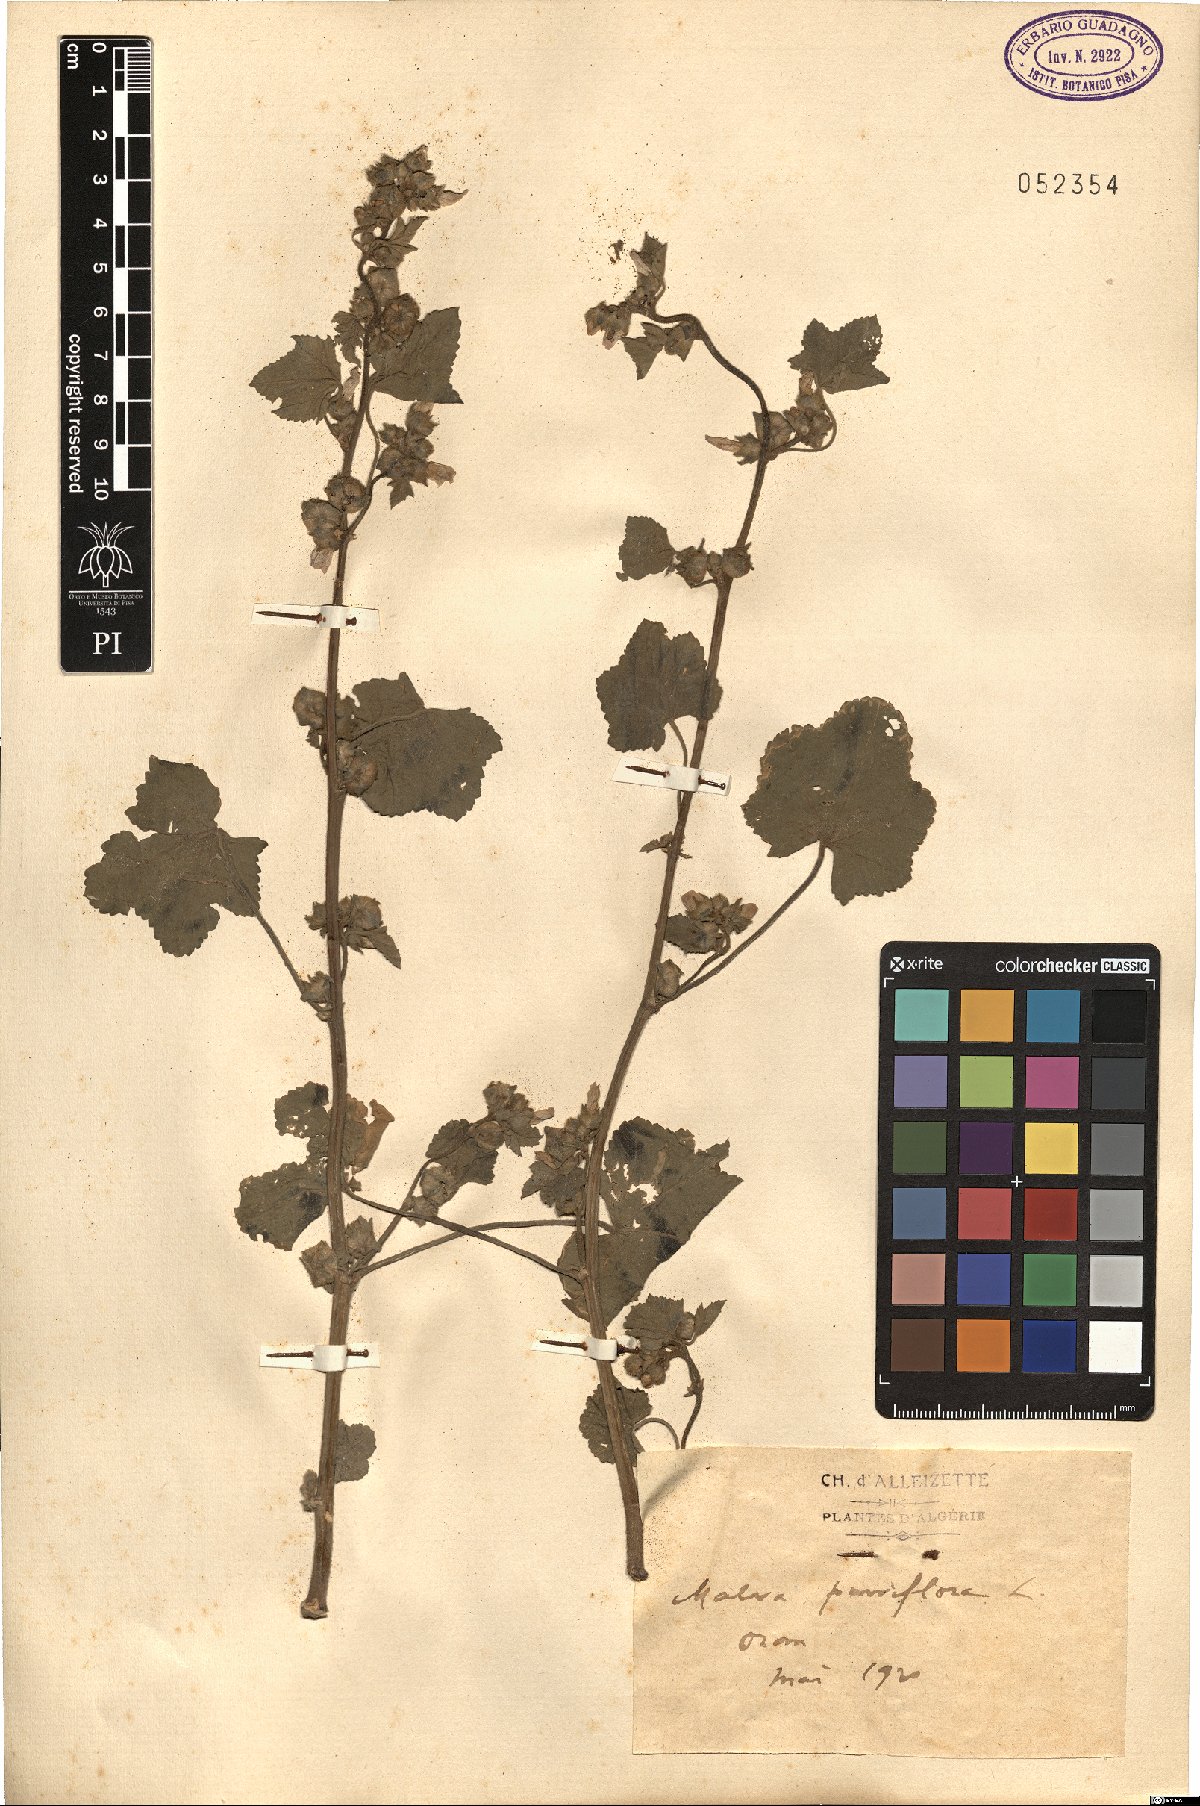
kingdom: Plantae
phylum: Tracheophyta
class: Magnoliopsida
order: Malvales
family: Malvaceae
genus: Malva
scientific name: Malva parviflora
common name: Least mallow
